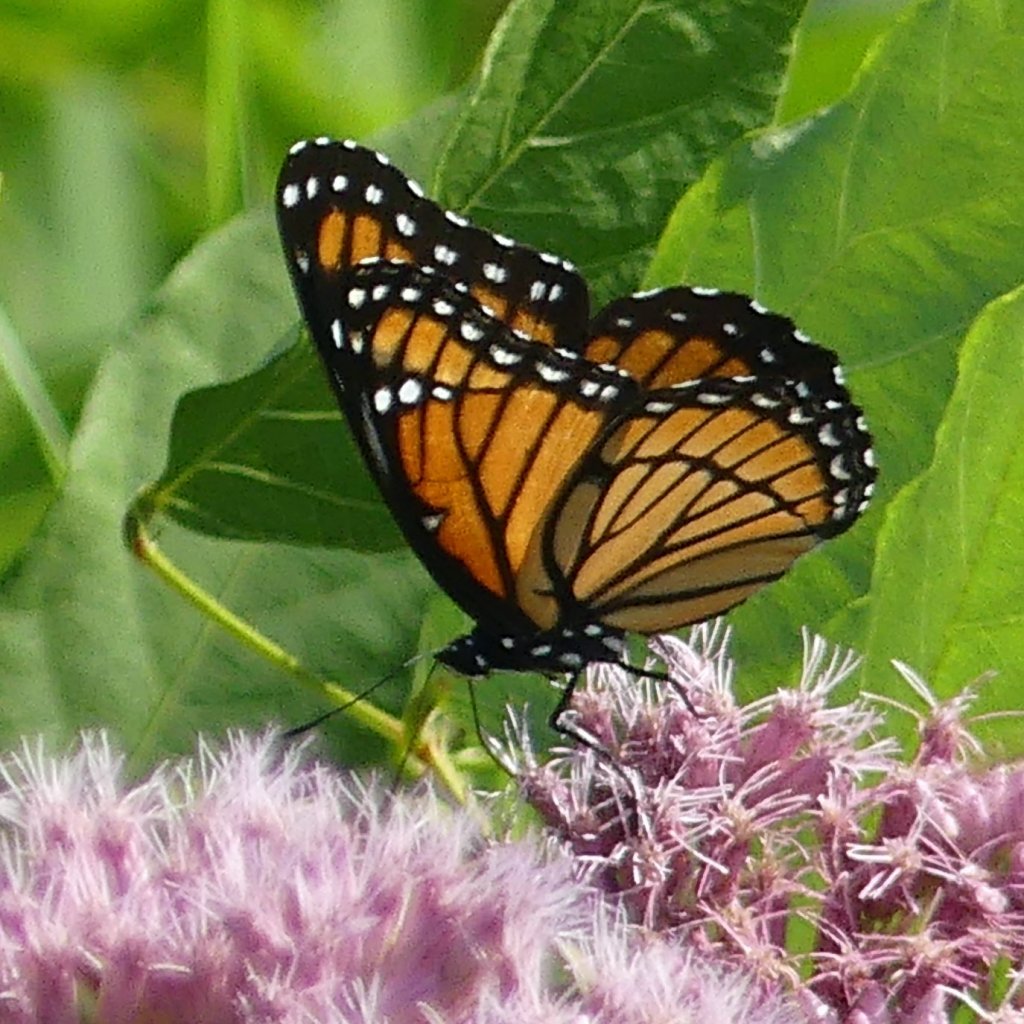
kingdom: Animalia
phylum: Arthropoda
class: Insecta
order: Lepidoptera
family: Nymphalidae
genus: Limenitis
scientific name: Limenitis archippus
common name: Viceroy
